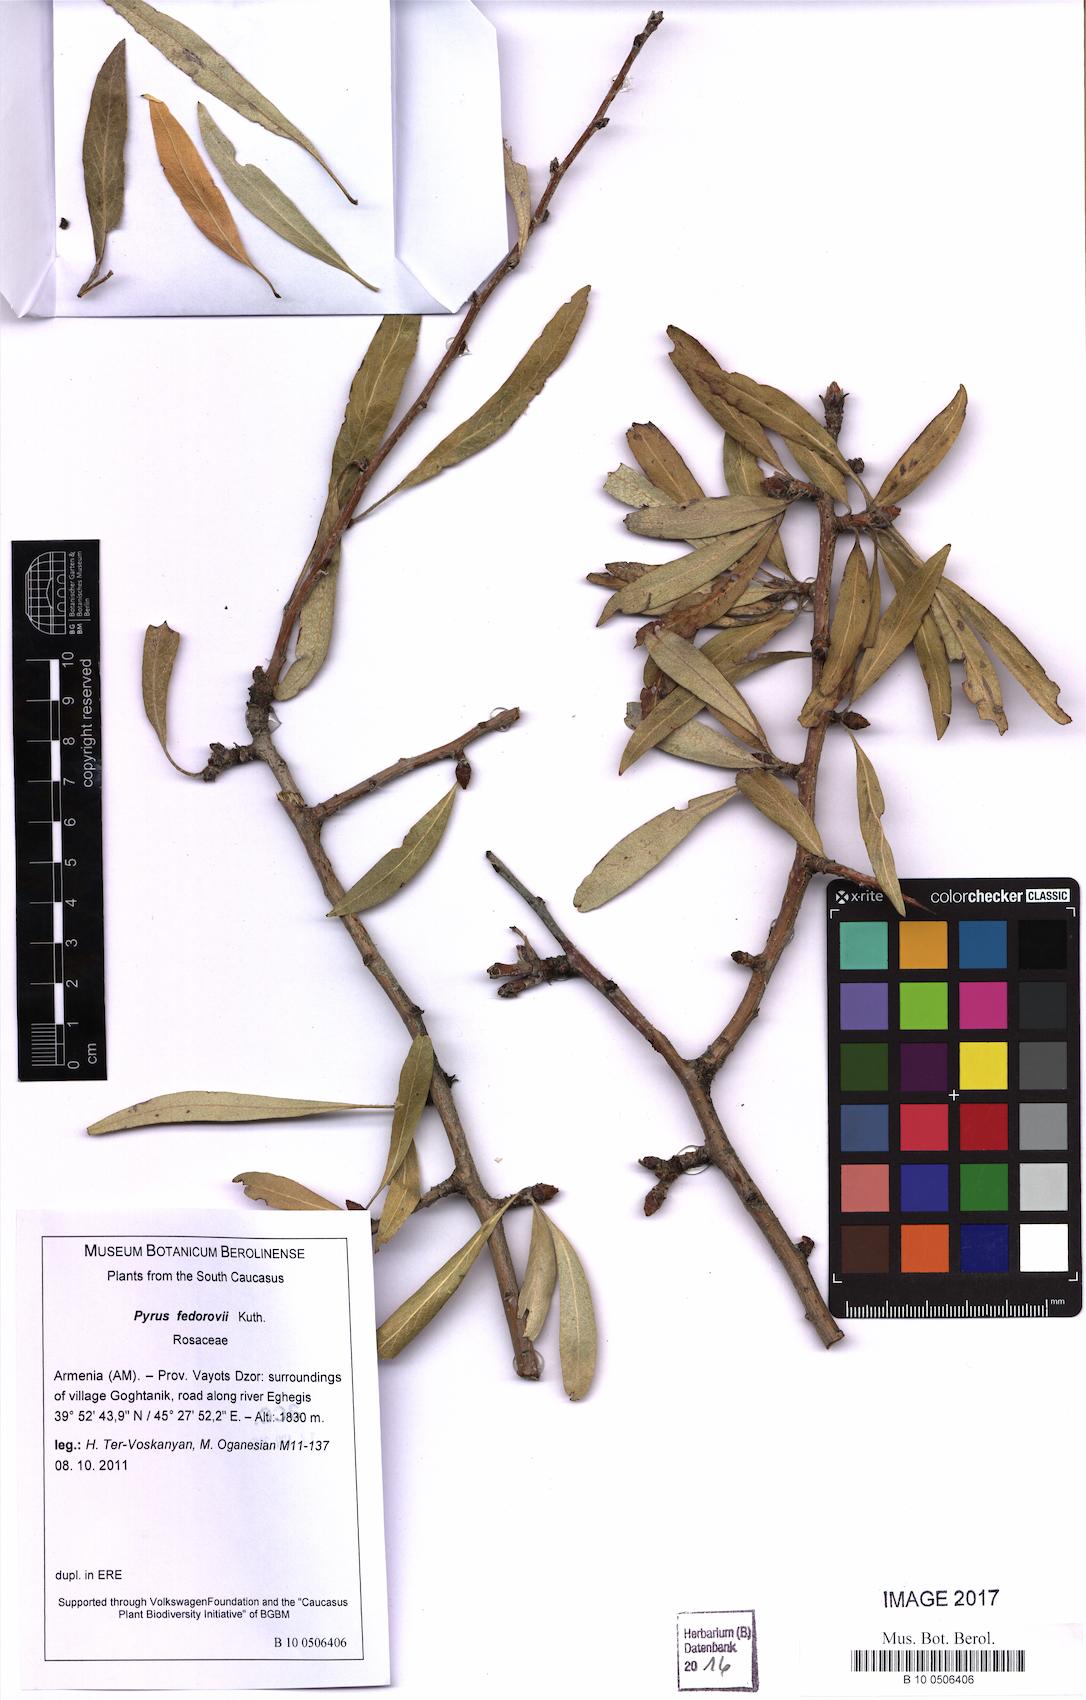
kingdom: Plantae
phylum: Tracheophyta
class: Magnoliopsida
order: Rosales
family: Rosaceae
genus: Pyrus
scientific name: Pyrus fedorovii
